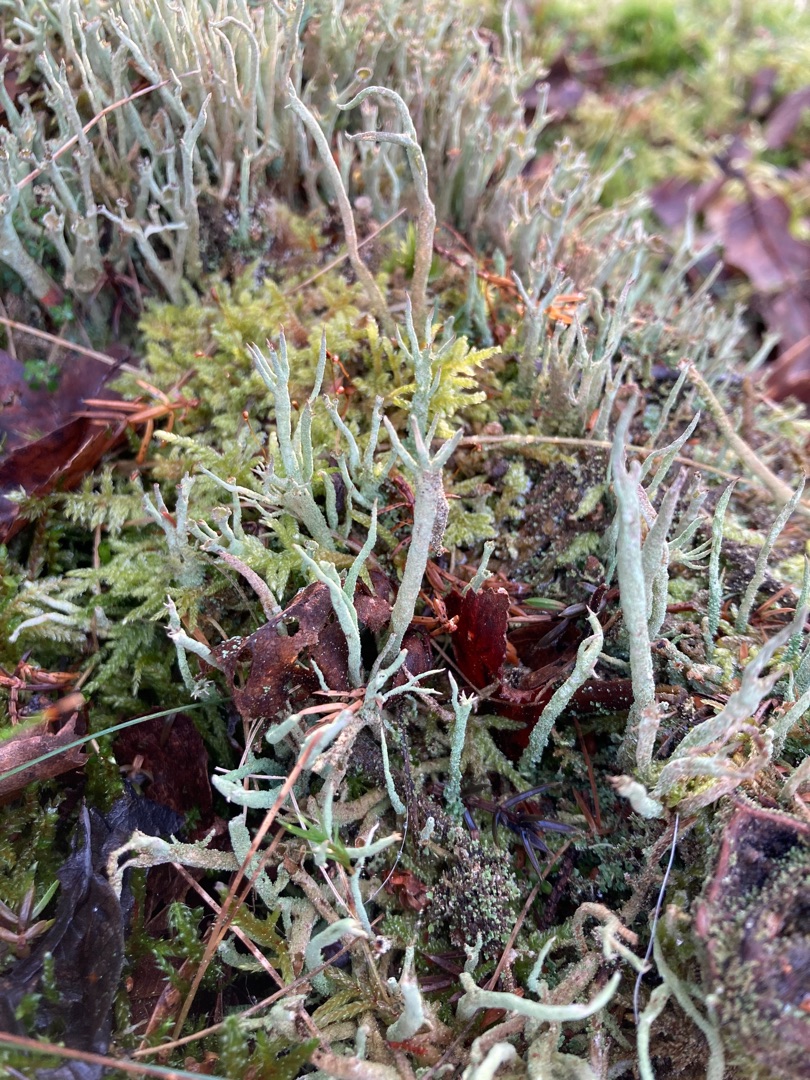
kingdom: Fungi
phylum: Ascomycota
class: Lecanoromycetes
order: Lecanorales
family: Cladoniaceae
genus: Cladonia
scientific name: Cladonia subulata
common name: Spids bægerlav
